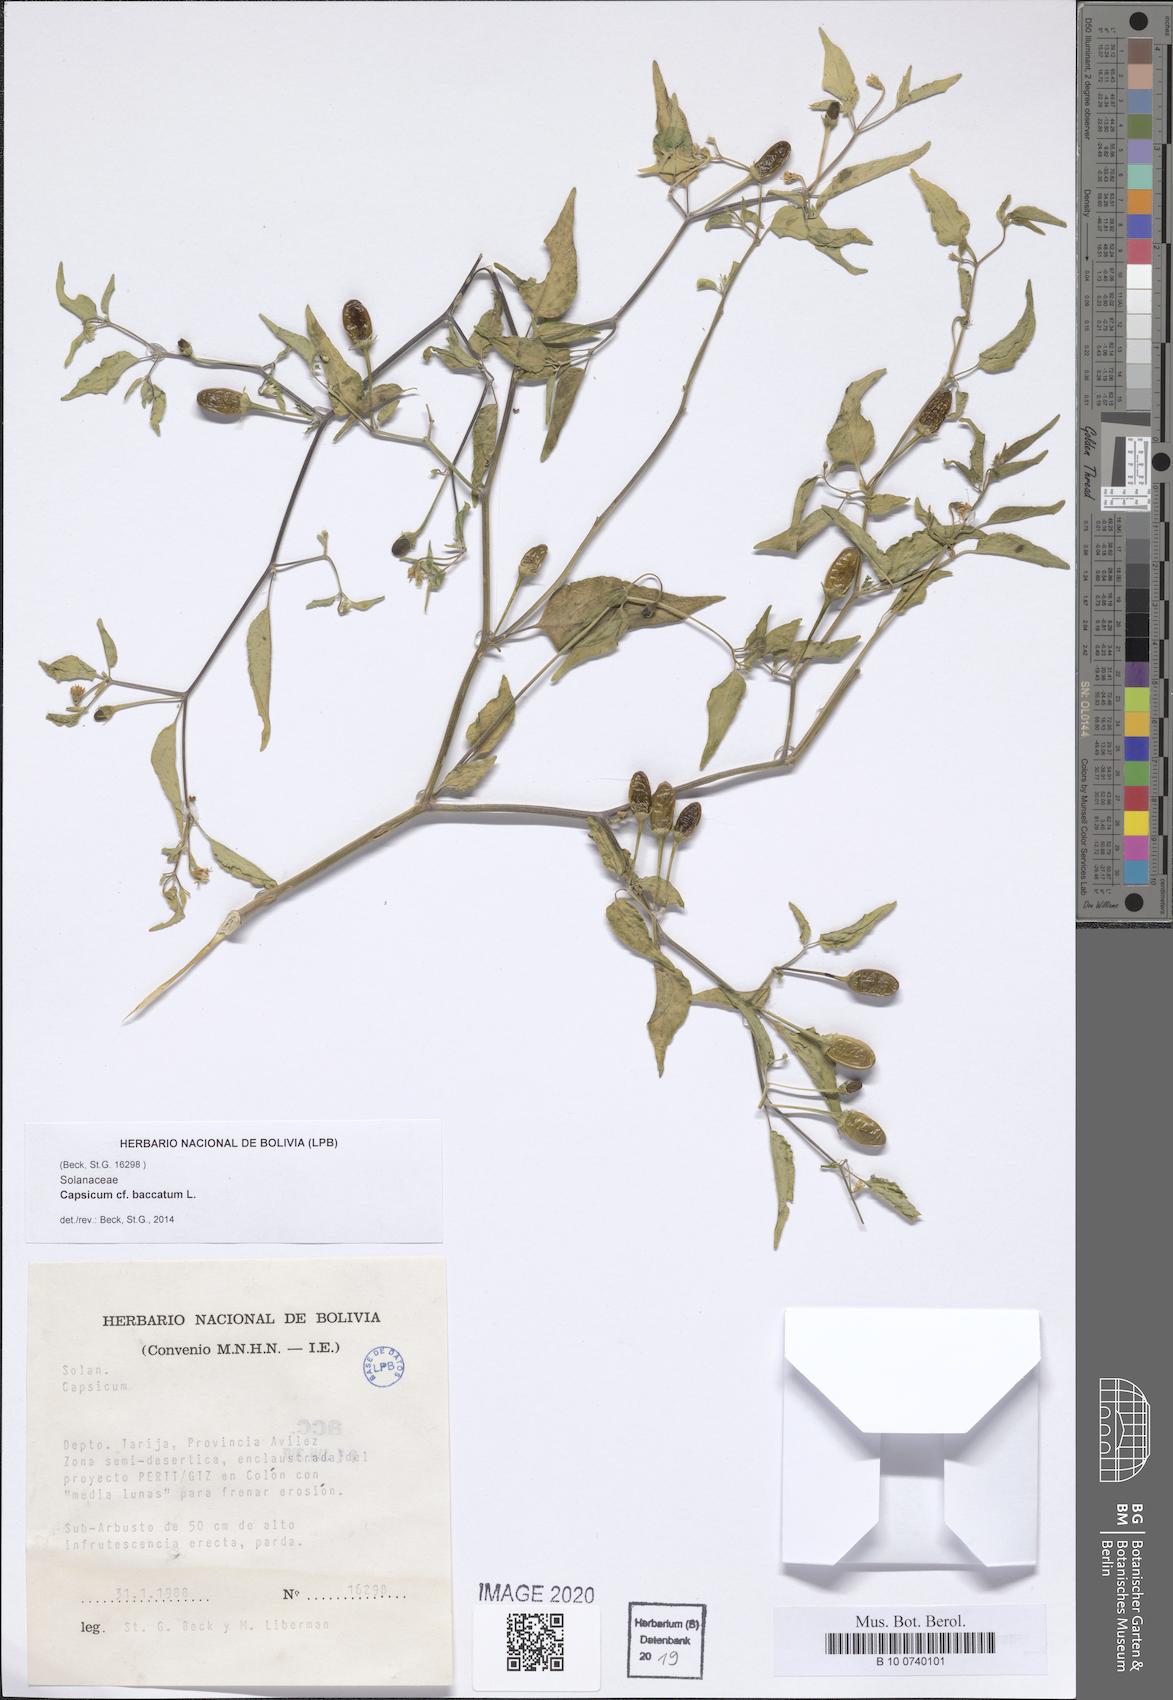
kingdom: Plantae
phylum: Tracheophyta
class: Magnoliopsida
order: Solanales
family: Solanaceae
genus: Capsicum
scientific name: Capsicum baccatum
